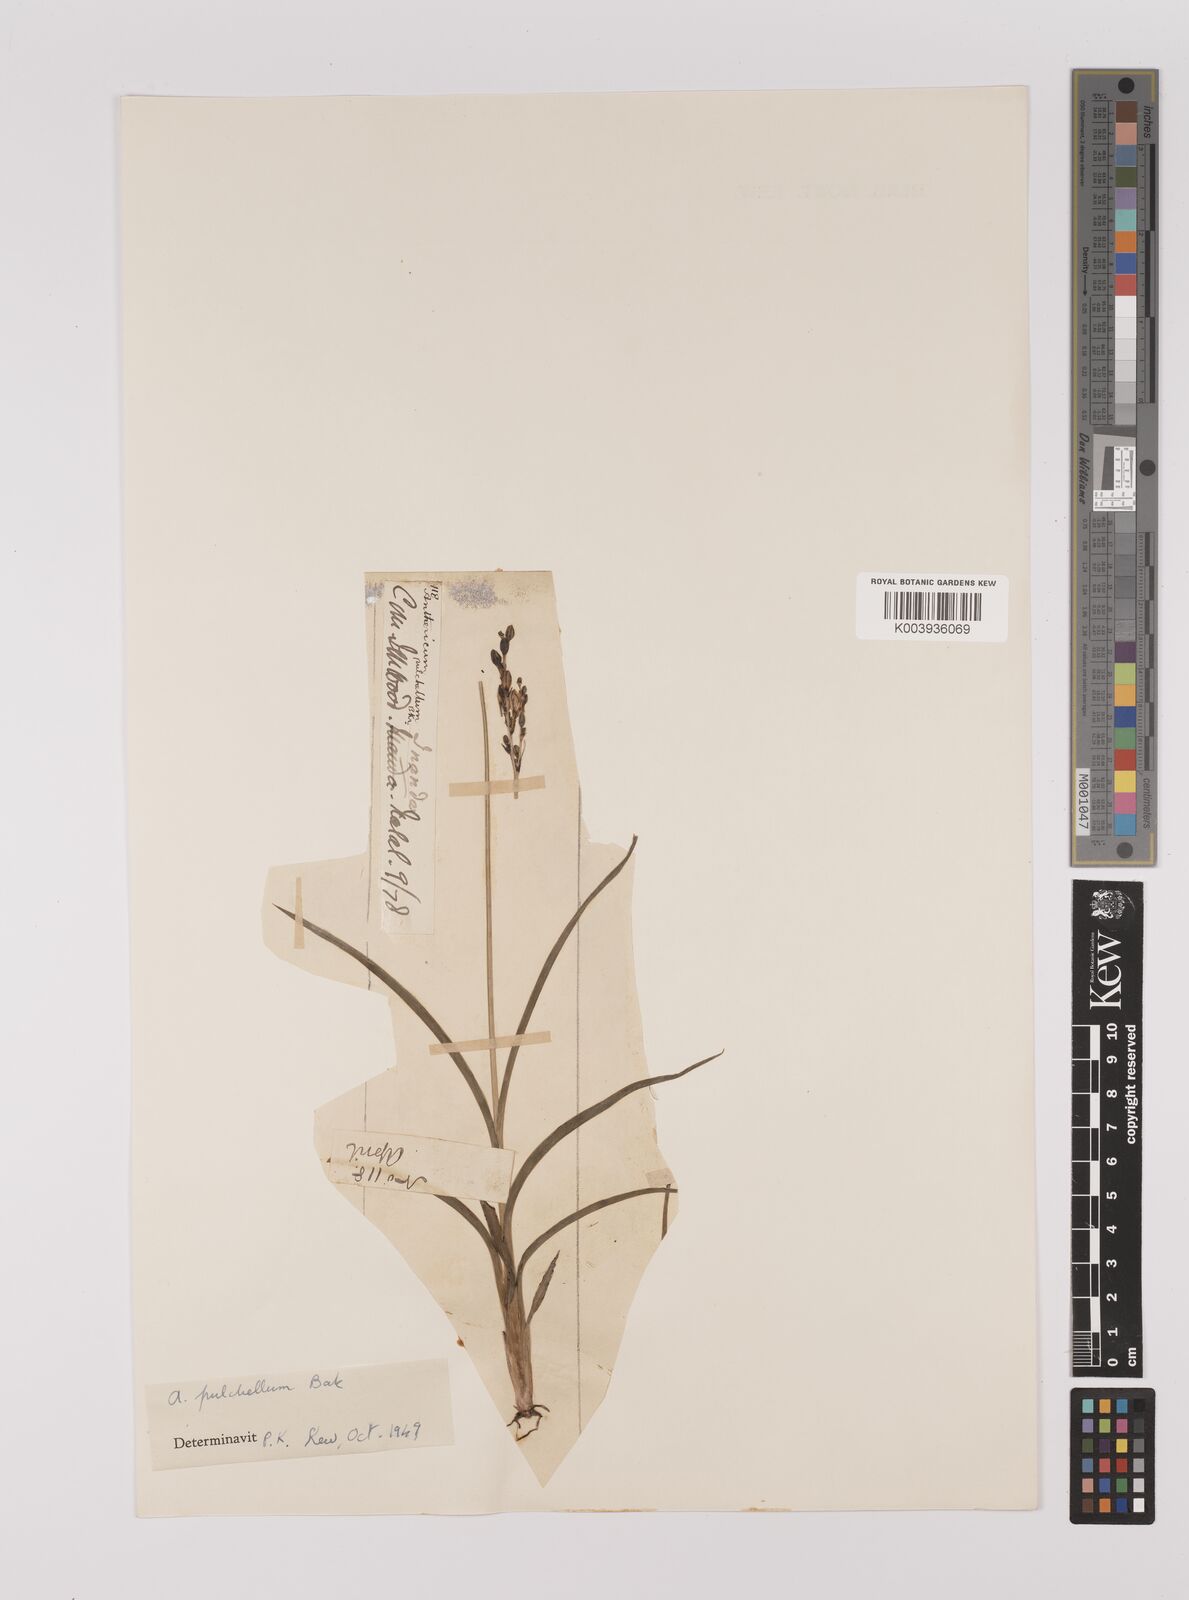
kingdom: Plantae
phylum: Tracheophyta
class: Liliopsida
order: Asparagales
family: Asparagaceae
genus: Chlorophytum
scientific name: Chlorophytum saundersiae
